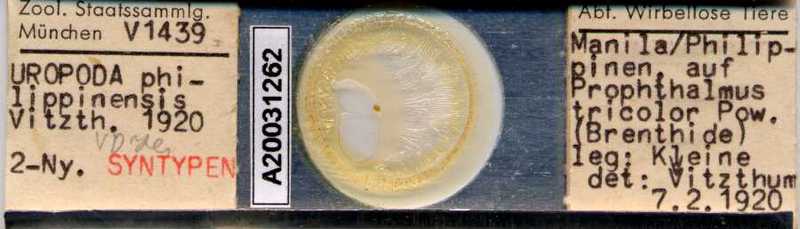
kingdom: Animalia
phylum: Arthropoda
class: Arachnida
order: Mesostigmata
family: Uropodidae
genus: Uropoda
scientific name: Uropoda
